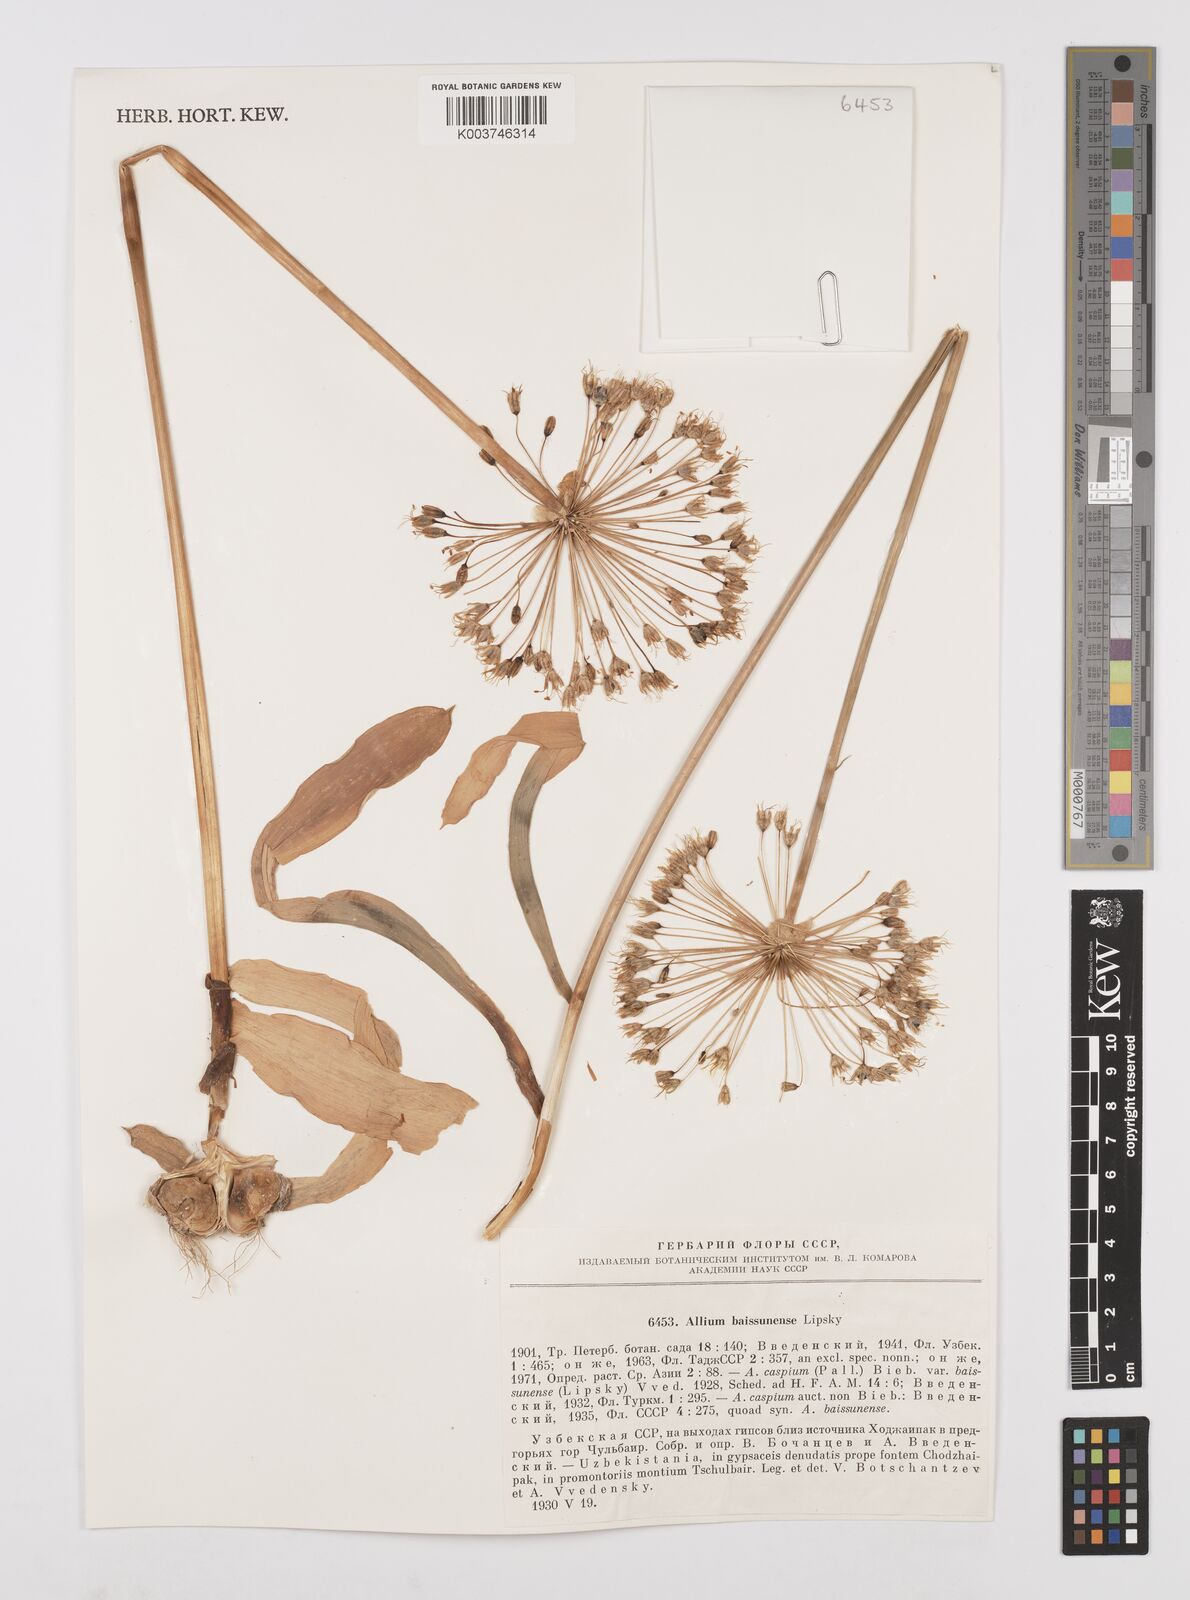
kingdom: Plantae
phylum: Tracheophyta
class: Liliopsida
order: Asparagales
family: Amaryllidaceae
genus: Allium
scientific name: Allium caspium
